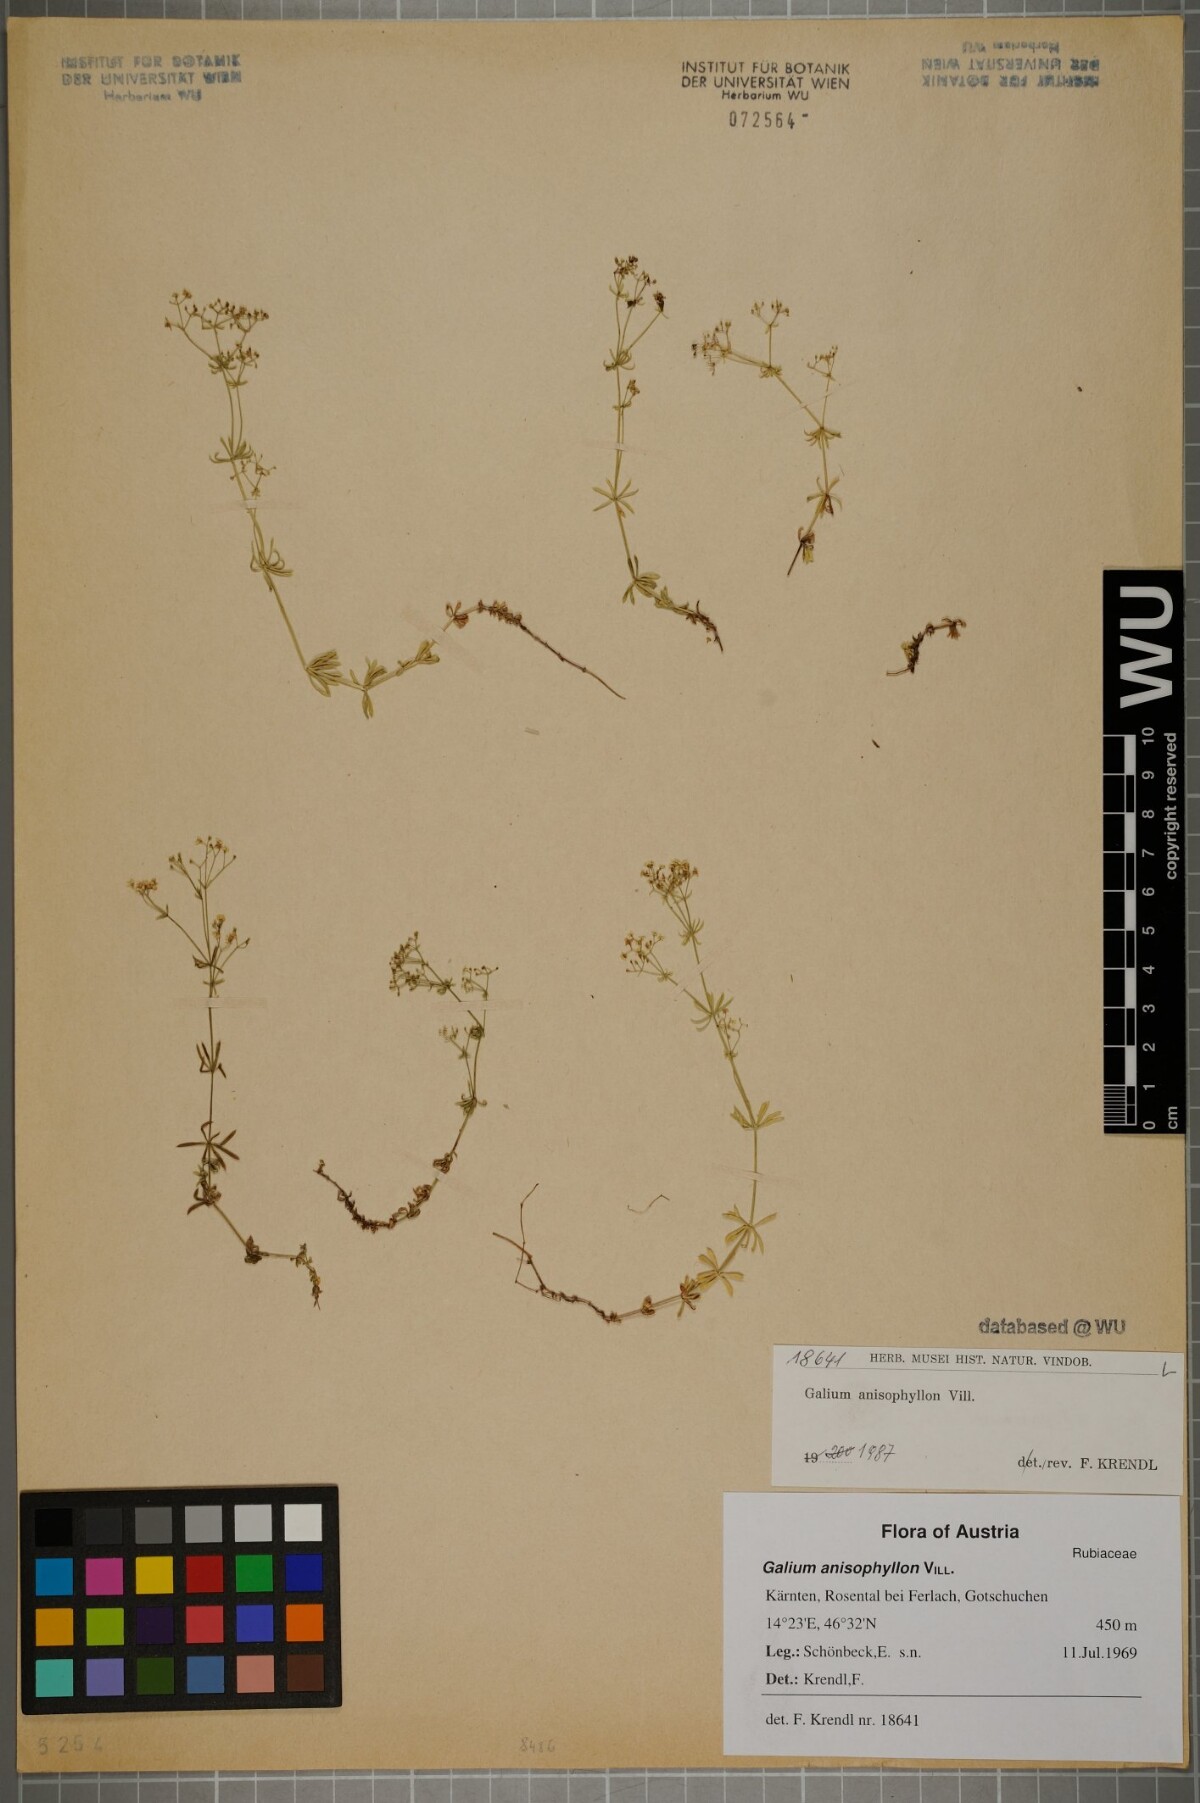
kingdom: Plantae
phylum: Tracheophyta
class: Magnoliopsida
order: Gentianales
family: Rubiaceae
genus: Galium
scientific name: Galium anisophyllon
